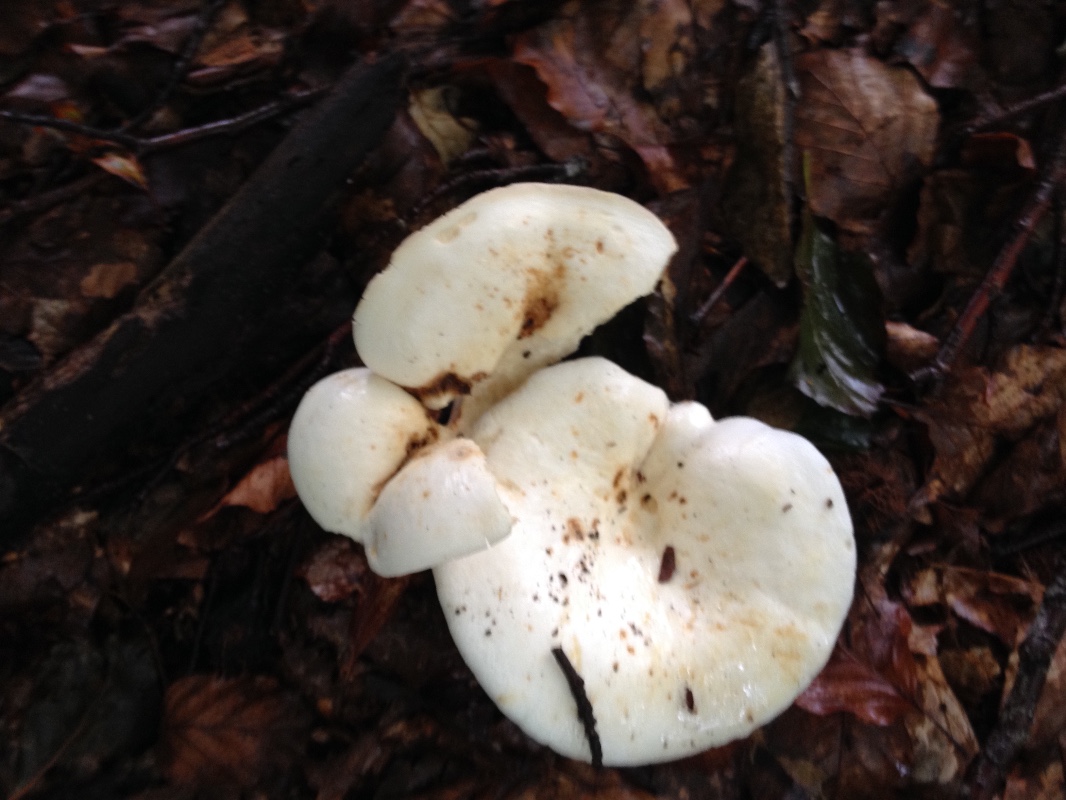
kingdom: Fungi
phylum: Basidiomycota
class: Agaricomycetes
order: Russulales
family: Russulaceae
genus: Lactifluus
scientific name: Lactifluus piperatus
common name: peber-mælkehat
